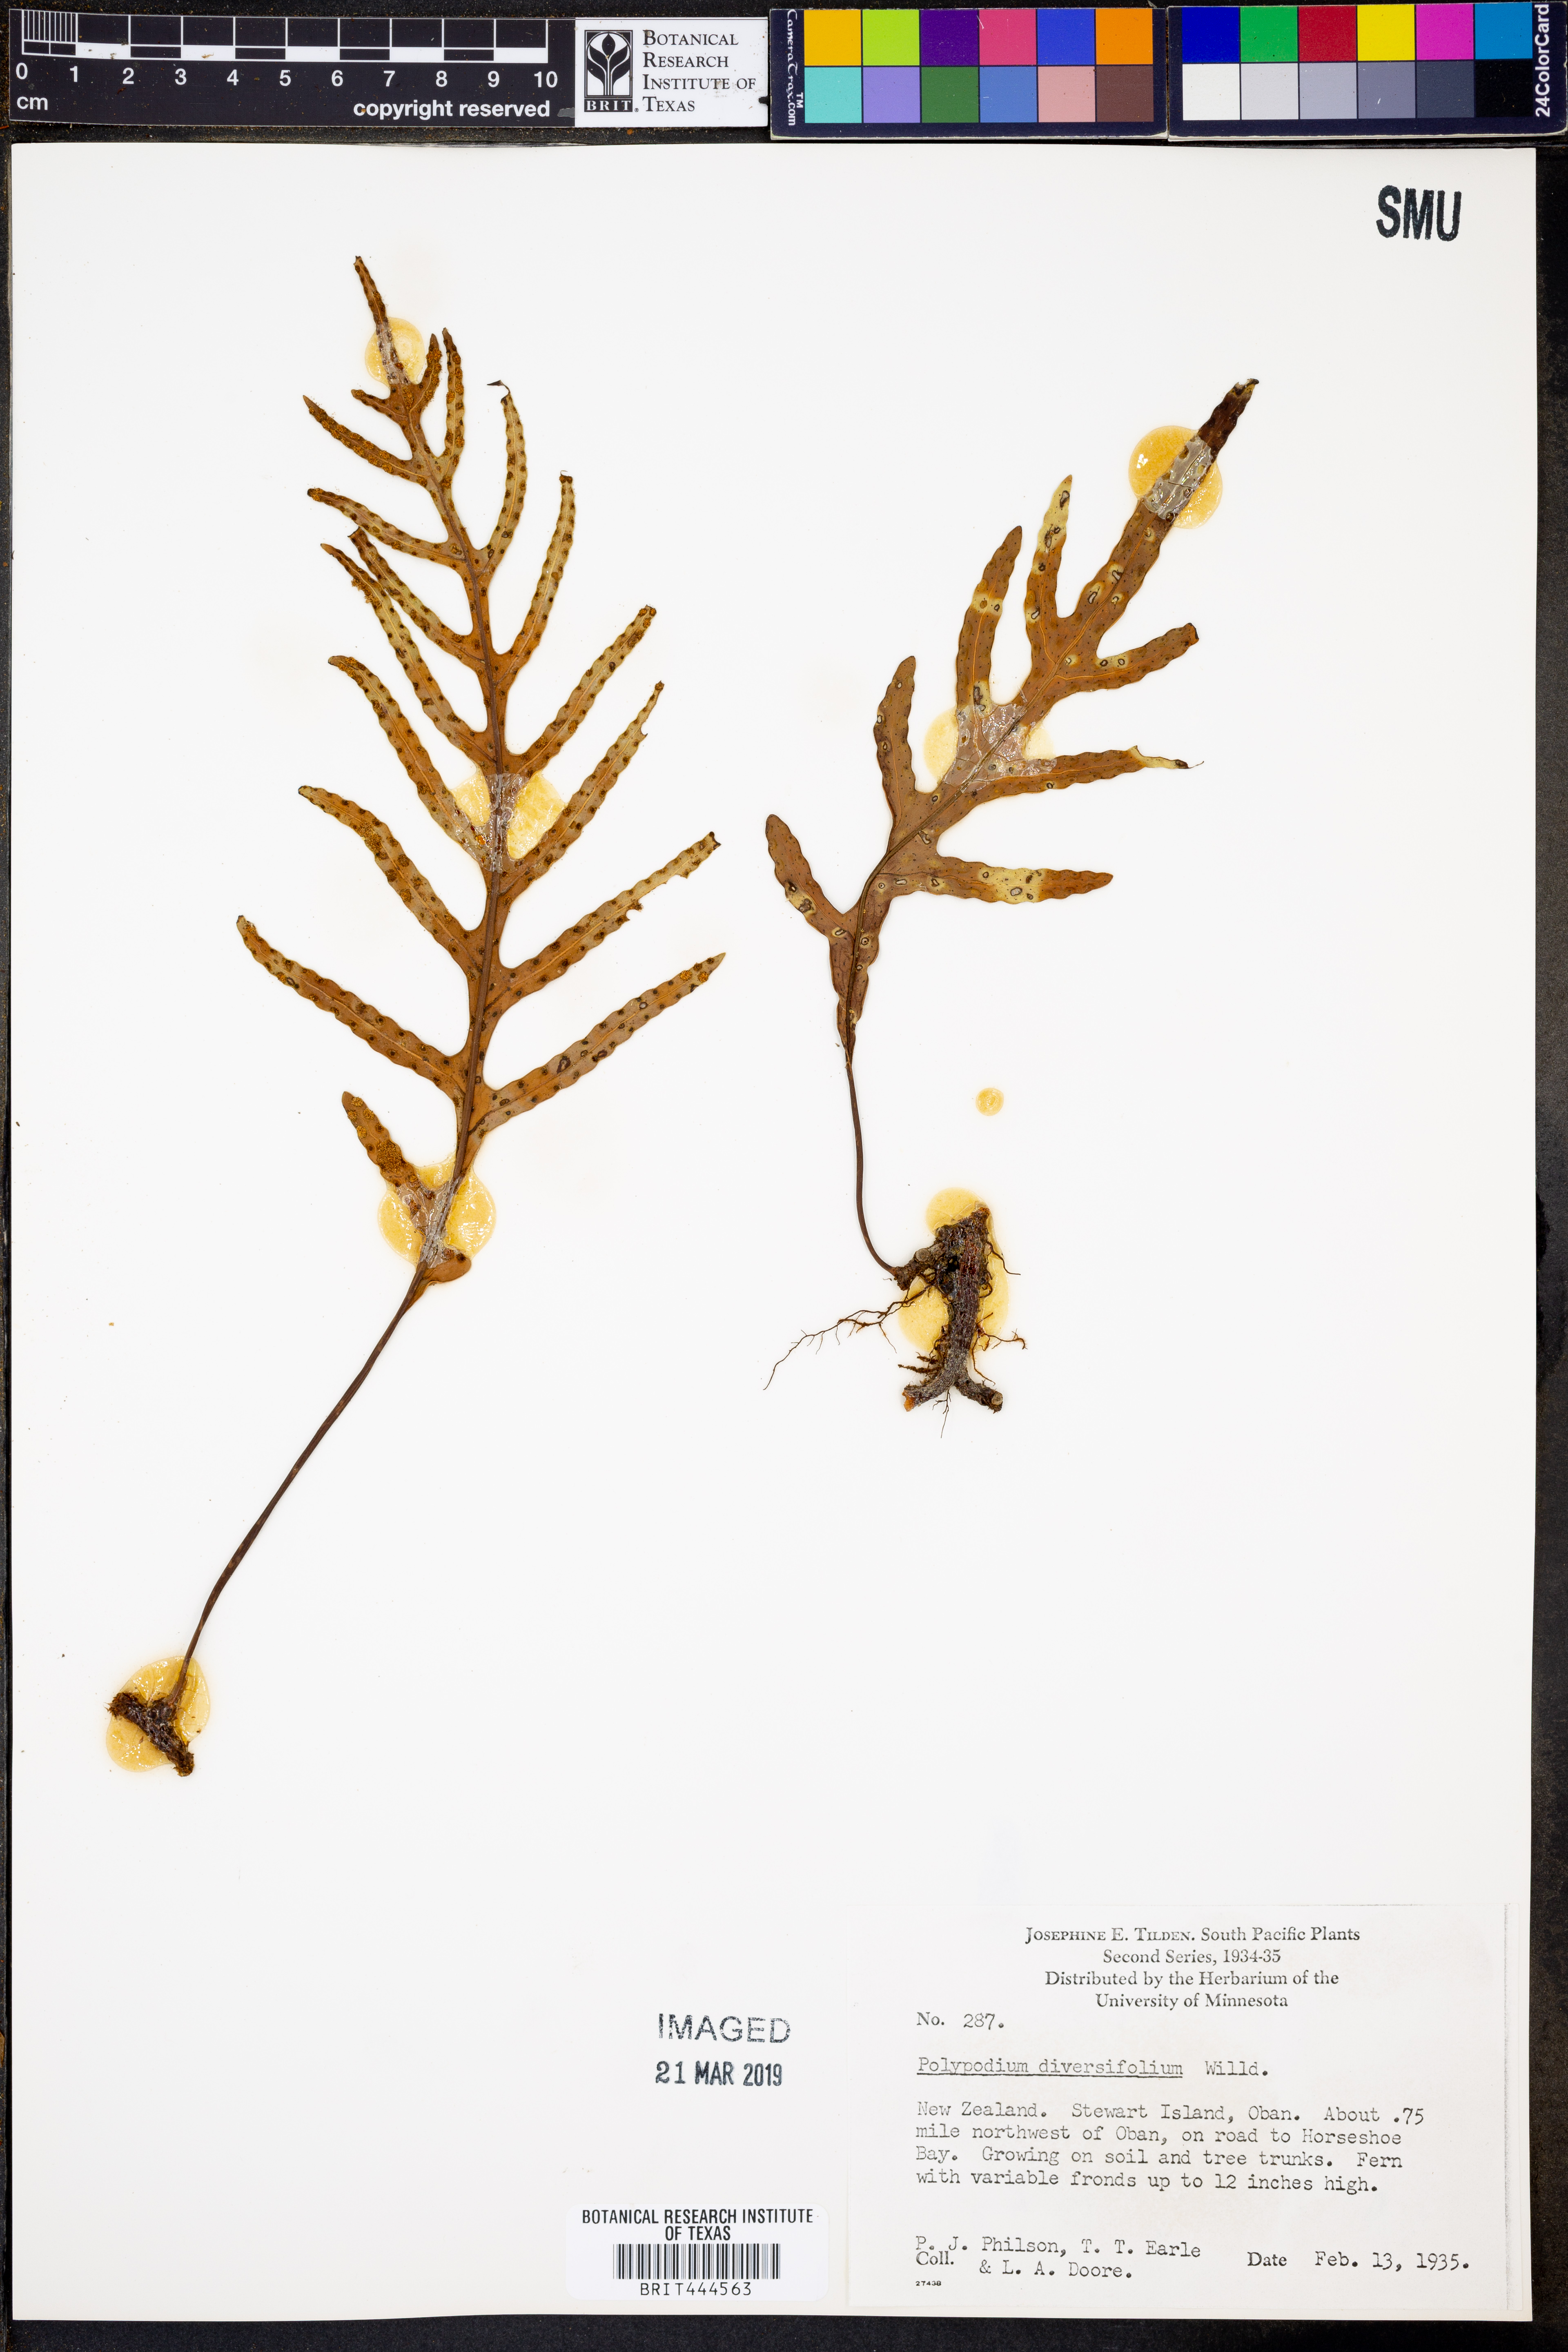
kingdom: Plantae
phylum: Tracheophyta
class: Polypodiopsida
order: Polypodiales
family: Polypodiaceae
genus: Lecanopteris
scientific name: Lecanopteris pustulata
